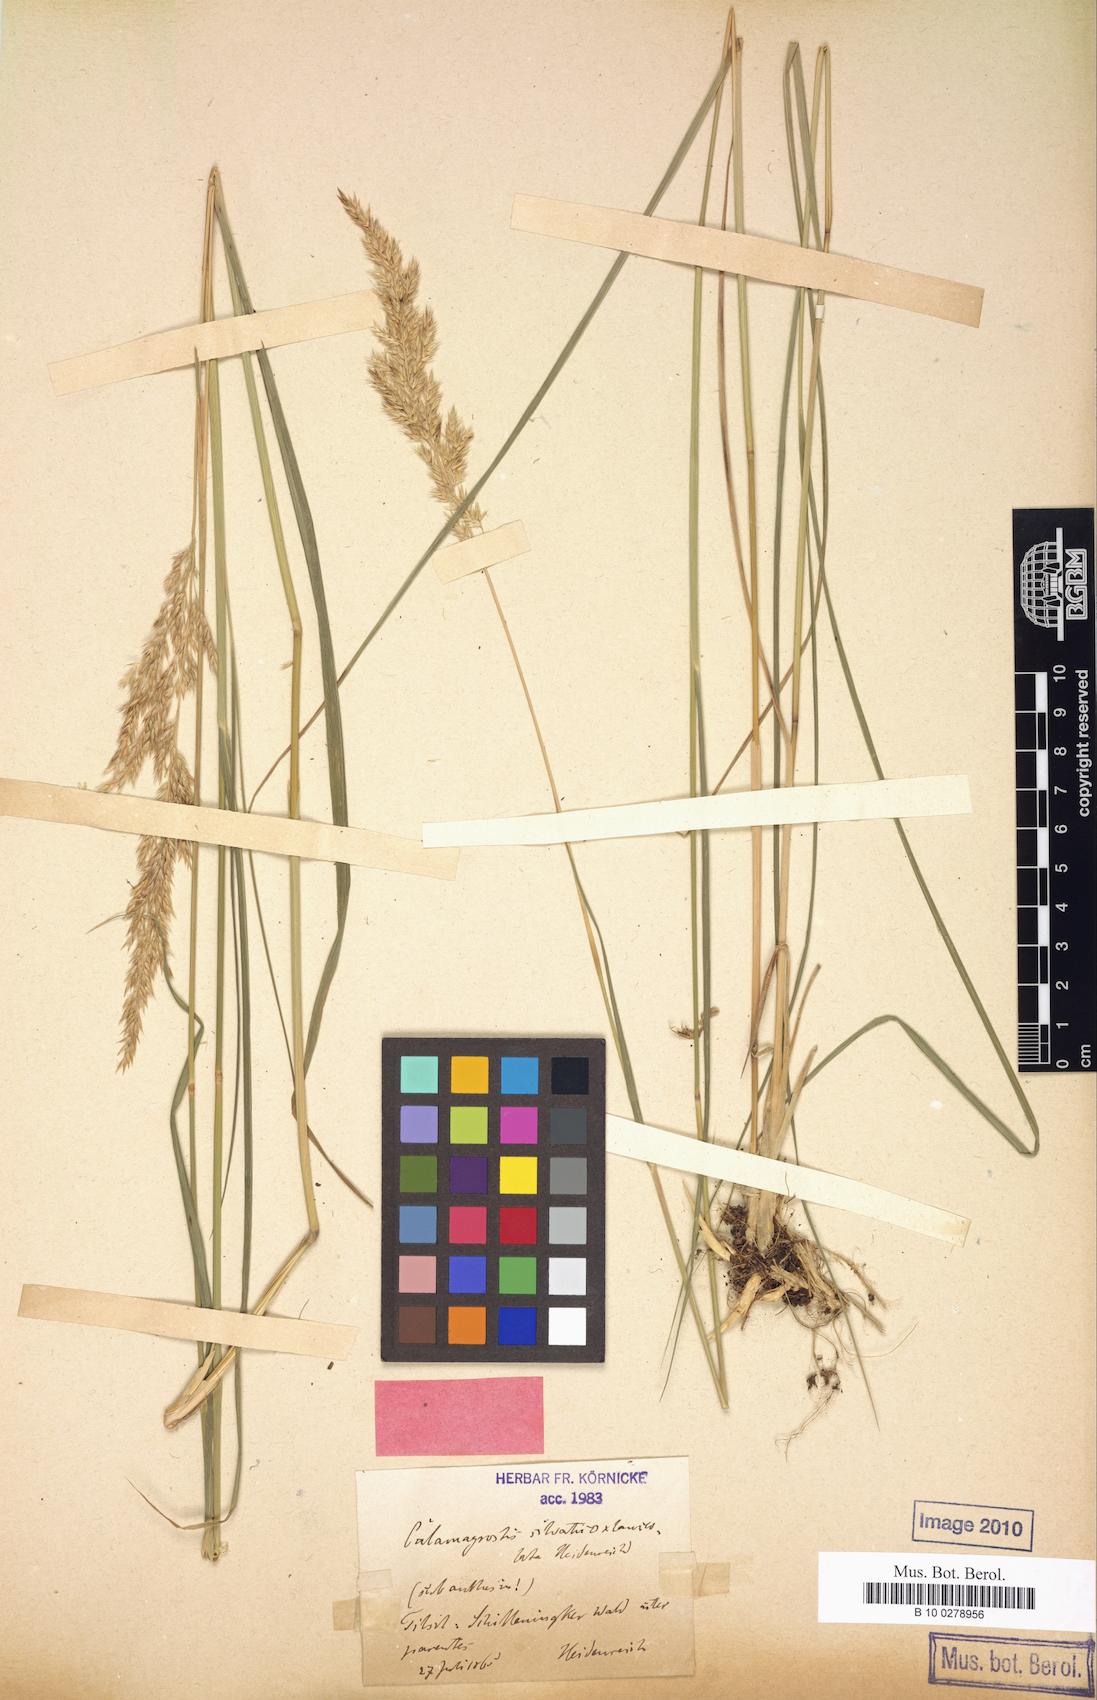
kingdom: Plantae
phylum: Tracheophyta
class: Liliopsida
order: Poales
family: Poaceae
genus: Calamagrostis
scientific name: Calamagrostis villosa
